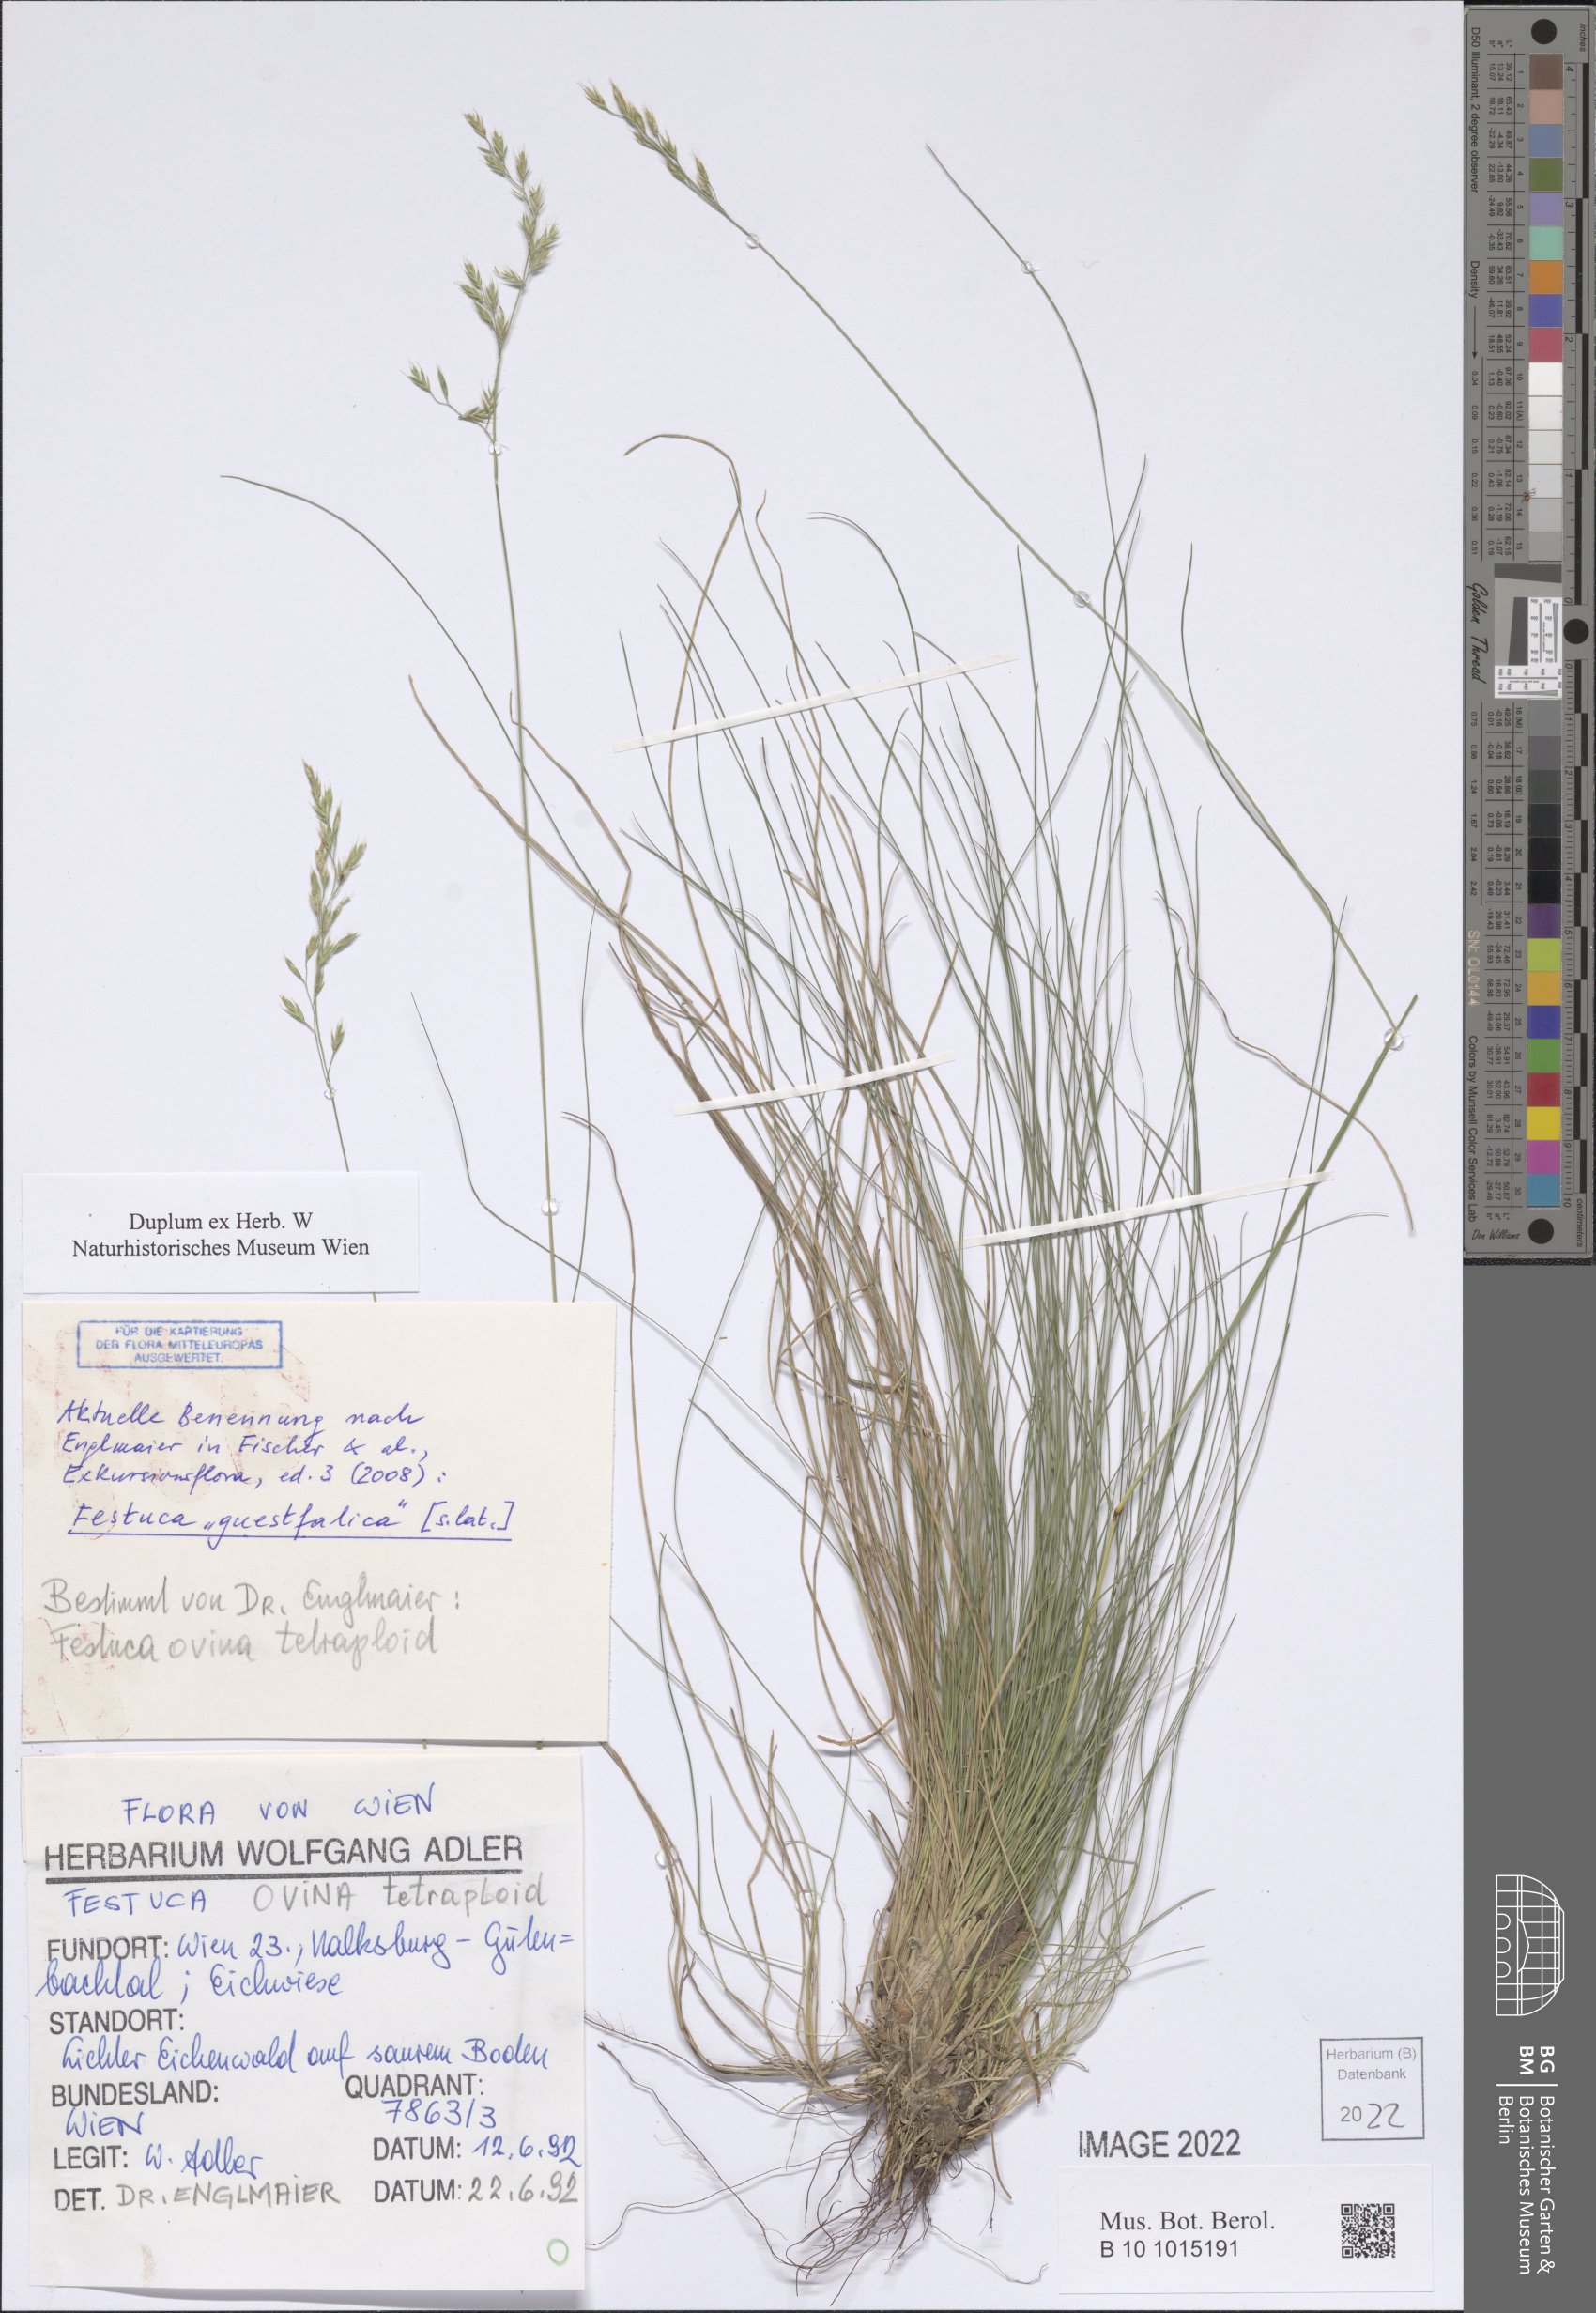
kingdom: Plantae
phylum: Tracheophyta
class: Liliopsida
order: Poales
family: Poaceae
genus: Festuca
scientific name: Festuca ovina
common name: Sheep fescue
